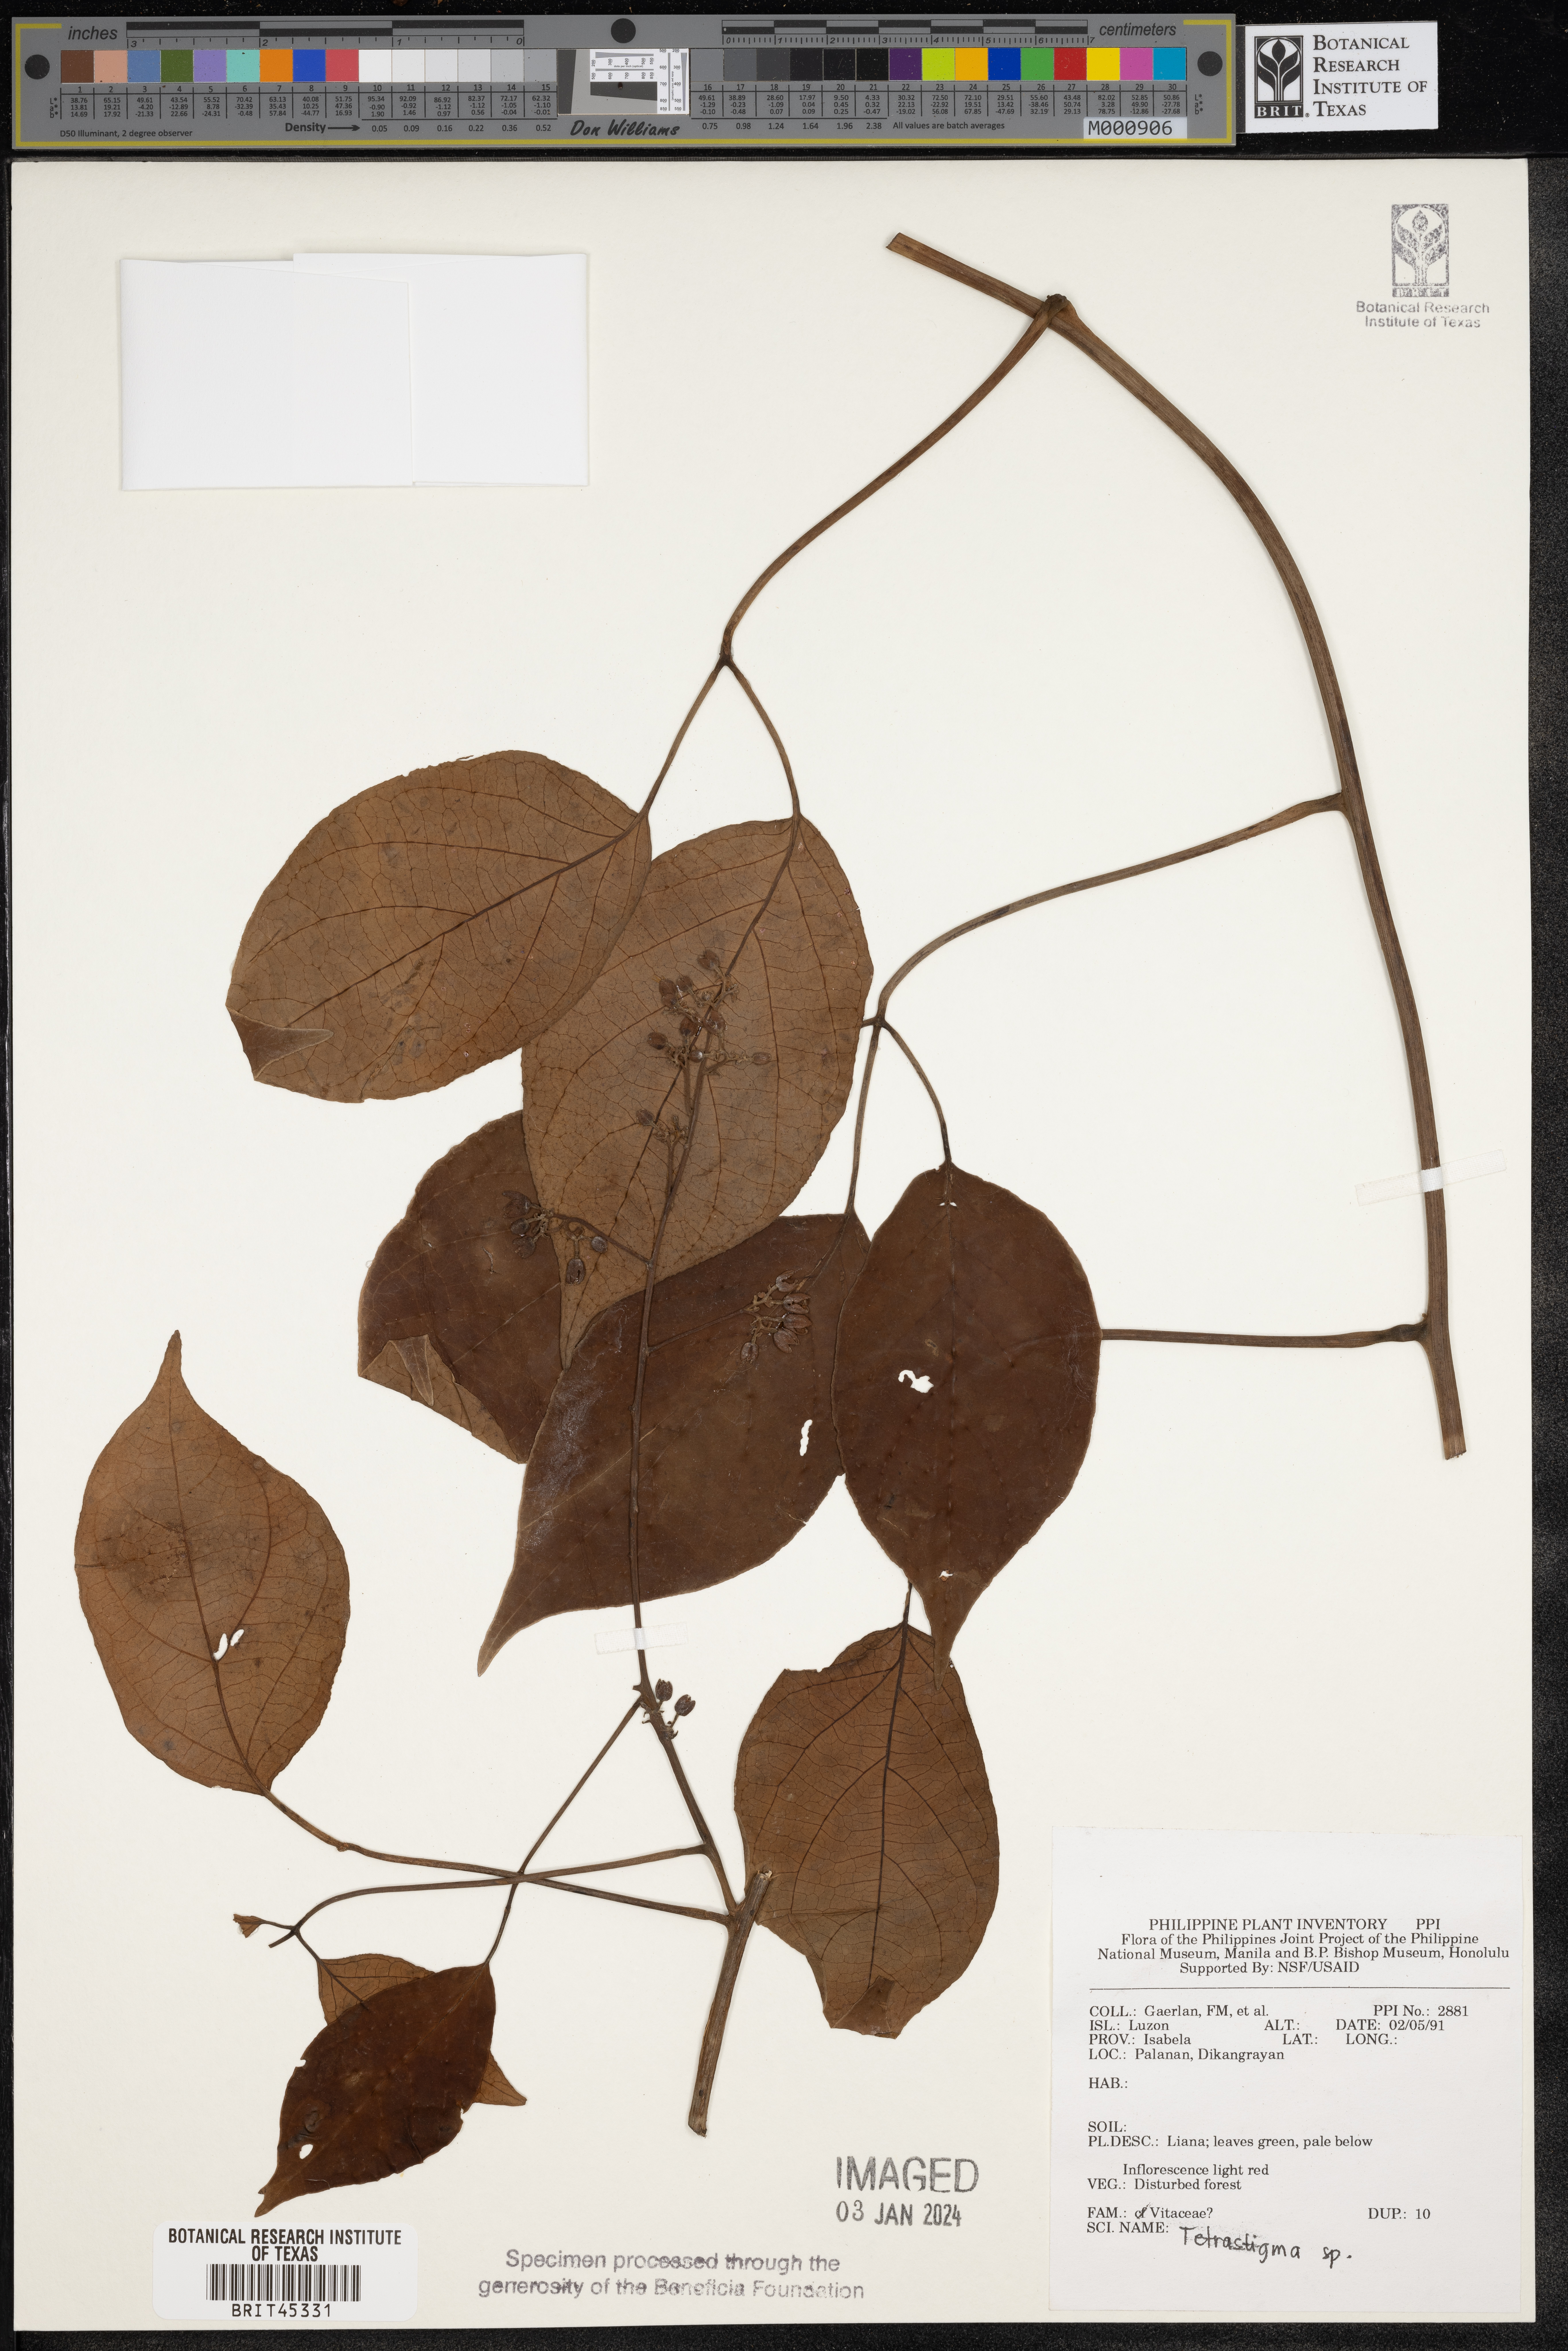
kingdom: Plantae
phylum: Tracheophyta
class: Magnoliopsida
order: Vitales
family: Vitaceae
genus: Tetrastigma
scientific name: Tetrastigma
